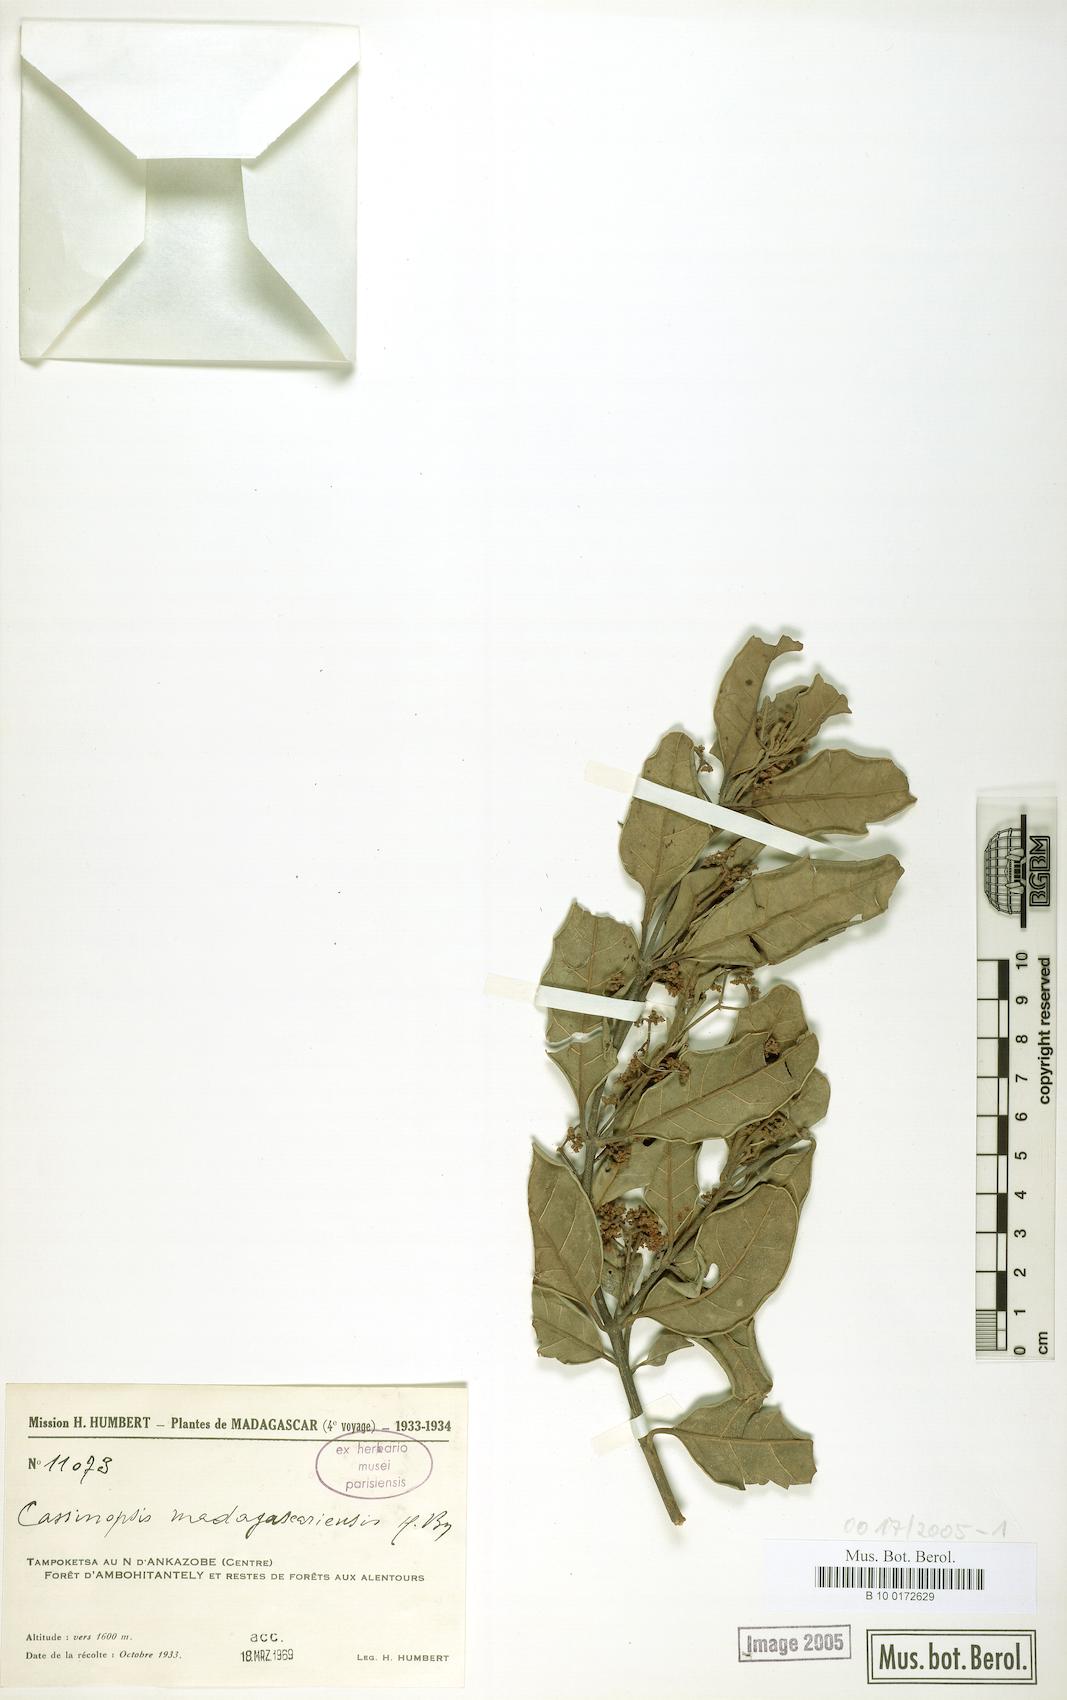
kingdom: Plantae
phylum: Tracheophyta
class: Magnoliopsida
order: Icacinales
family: Icacinaceae
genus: Cassinopsis
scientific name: Cassinopsis madagascariensis
